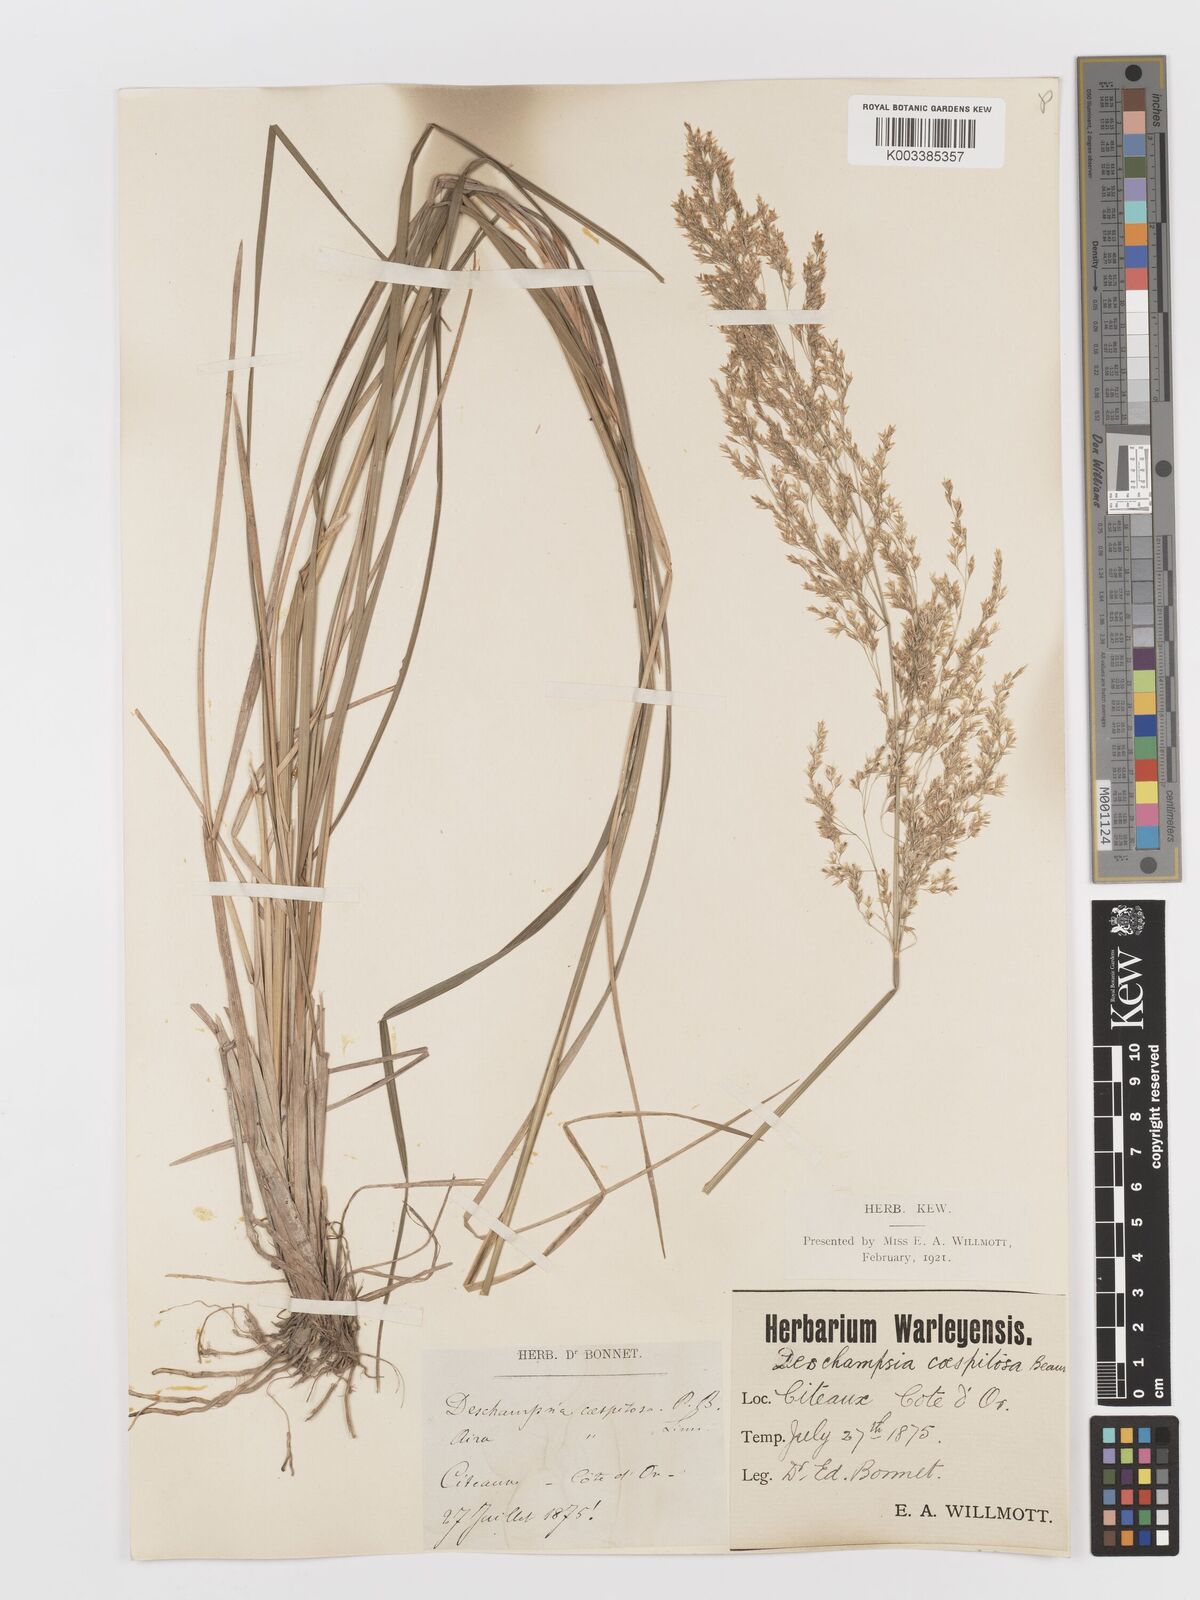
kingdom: Plantae
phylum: Tracheophyta
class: Liliopsida
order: Poales
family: Poaceae
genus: Deschampsia
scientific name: Deschampsia cespitosa
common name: Tufted hair-grass
